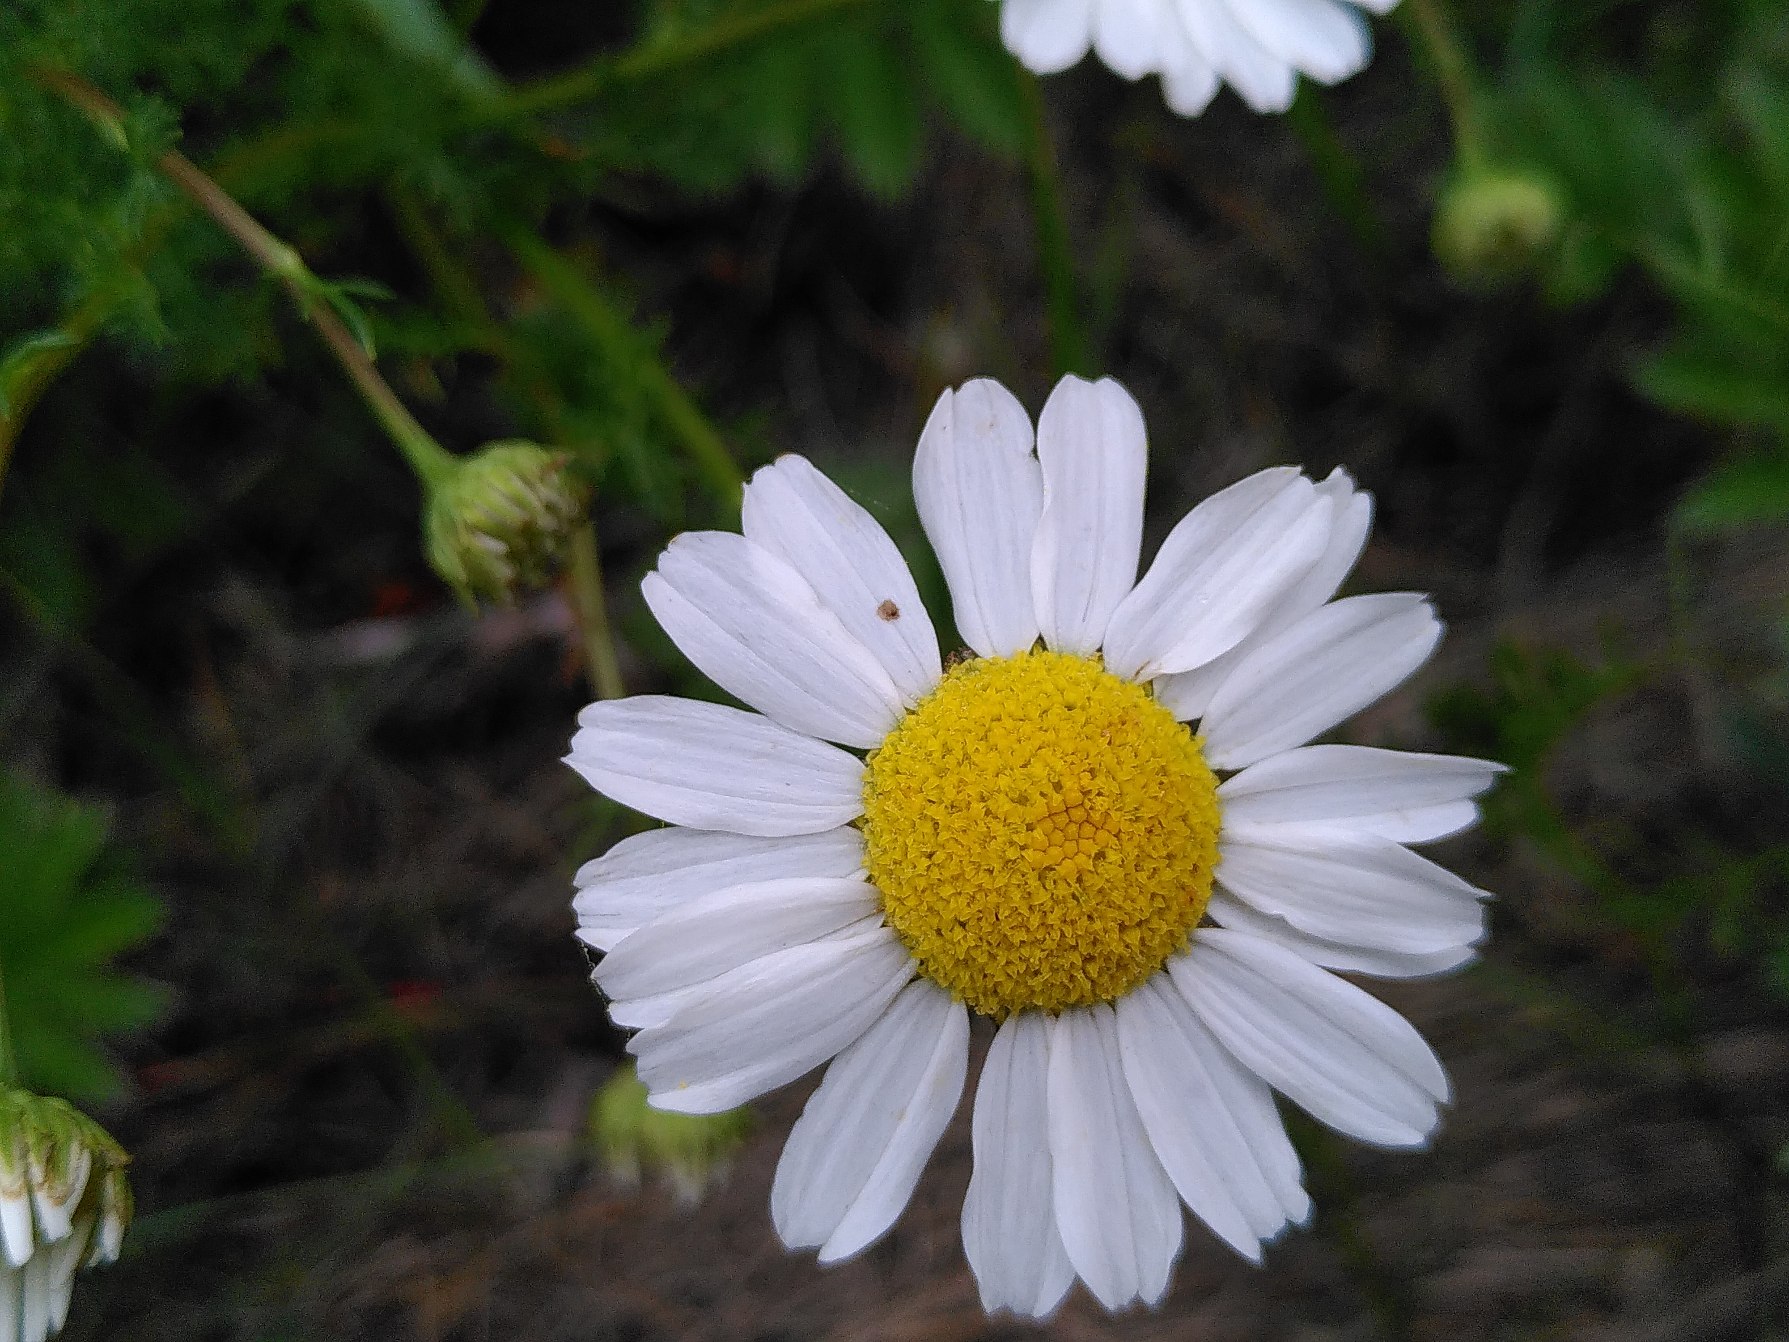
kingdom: Plantae
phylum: Tracheophyta
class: Magnoliopsida
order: Asterales
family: Asteraceae
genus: Tripleurospermum
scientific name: Tripleurospermum maritimum
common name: Strand-kamille
